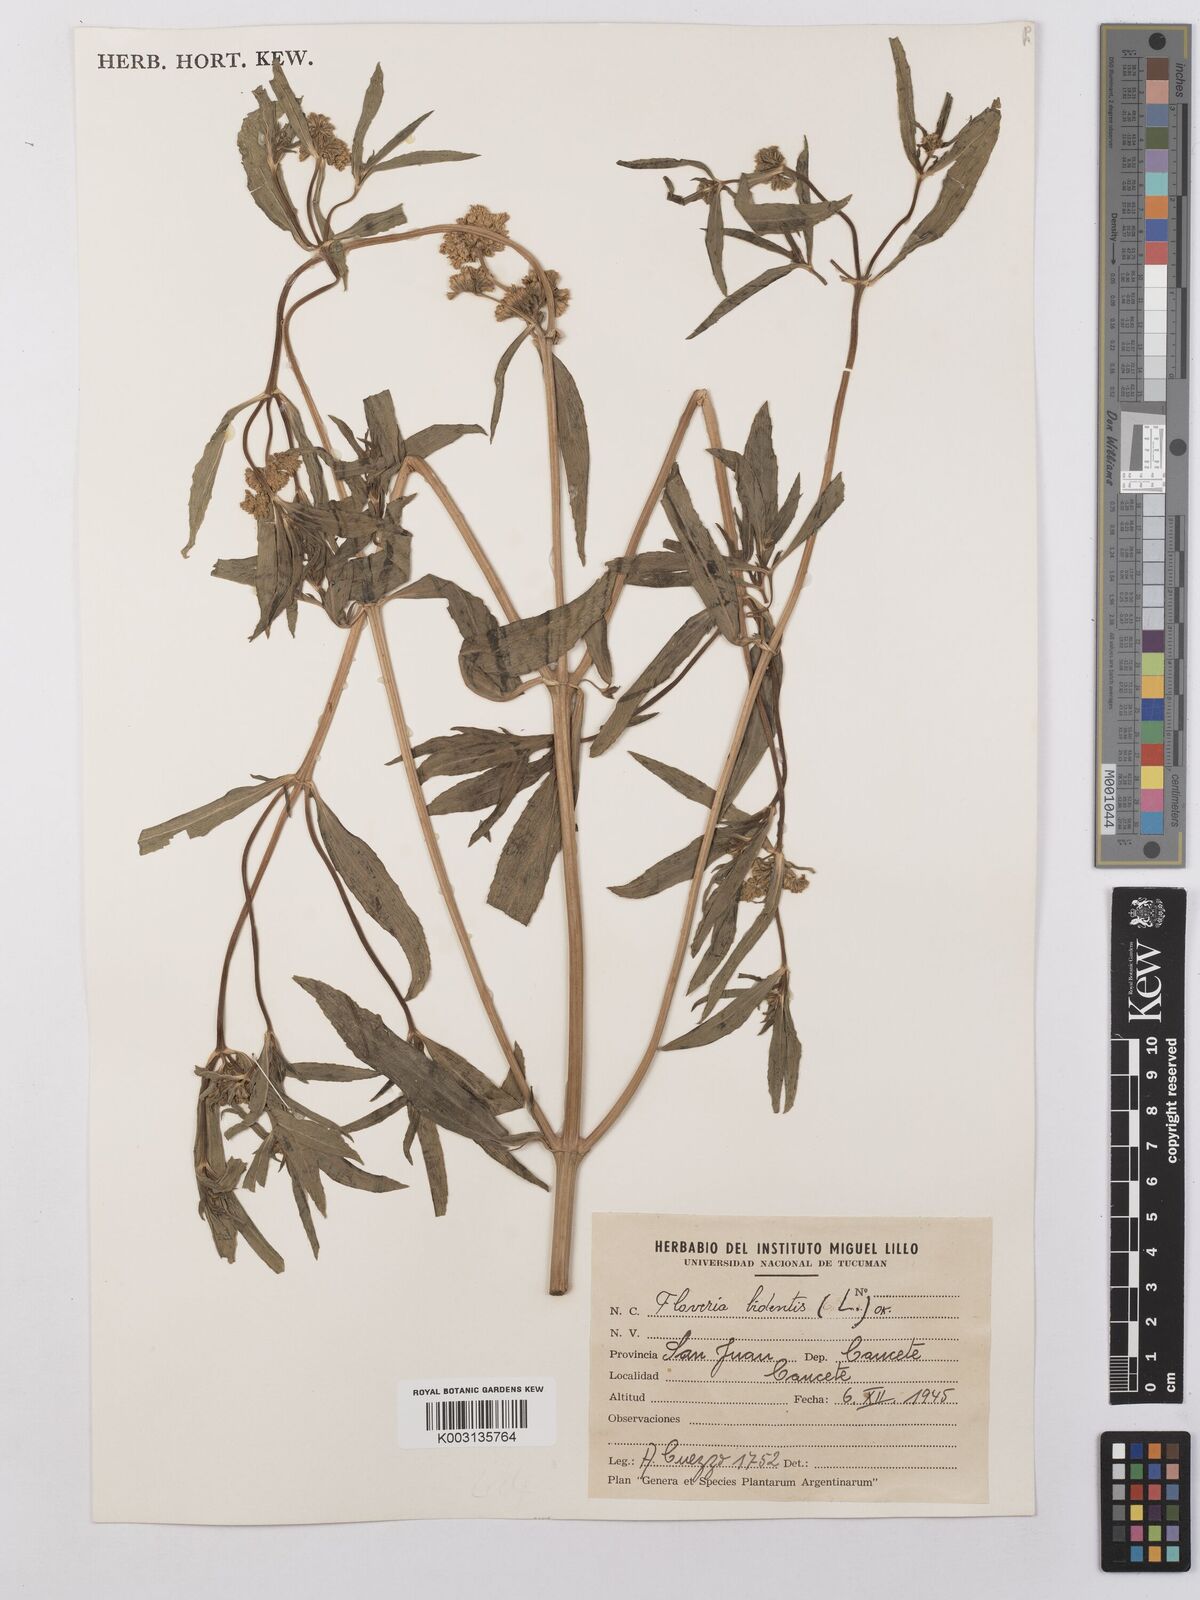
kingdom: Plantae
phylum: Tracheophyta
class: Magnoliopsida
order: Asterales
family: Asteraceae
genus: Flaveria
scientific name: Flaveria bidentis
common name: Coastal plain yellowtops
